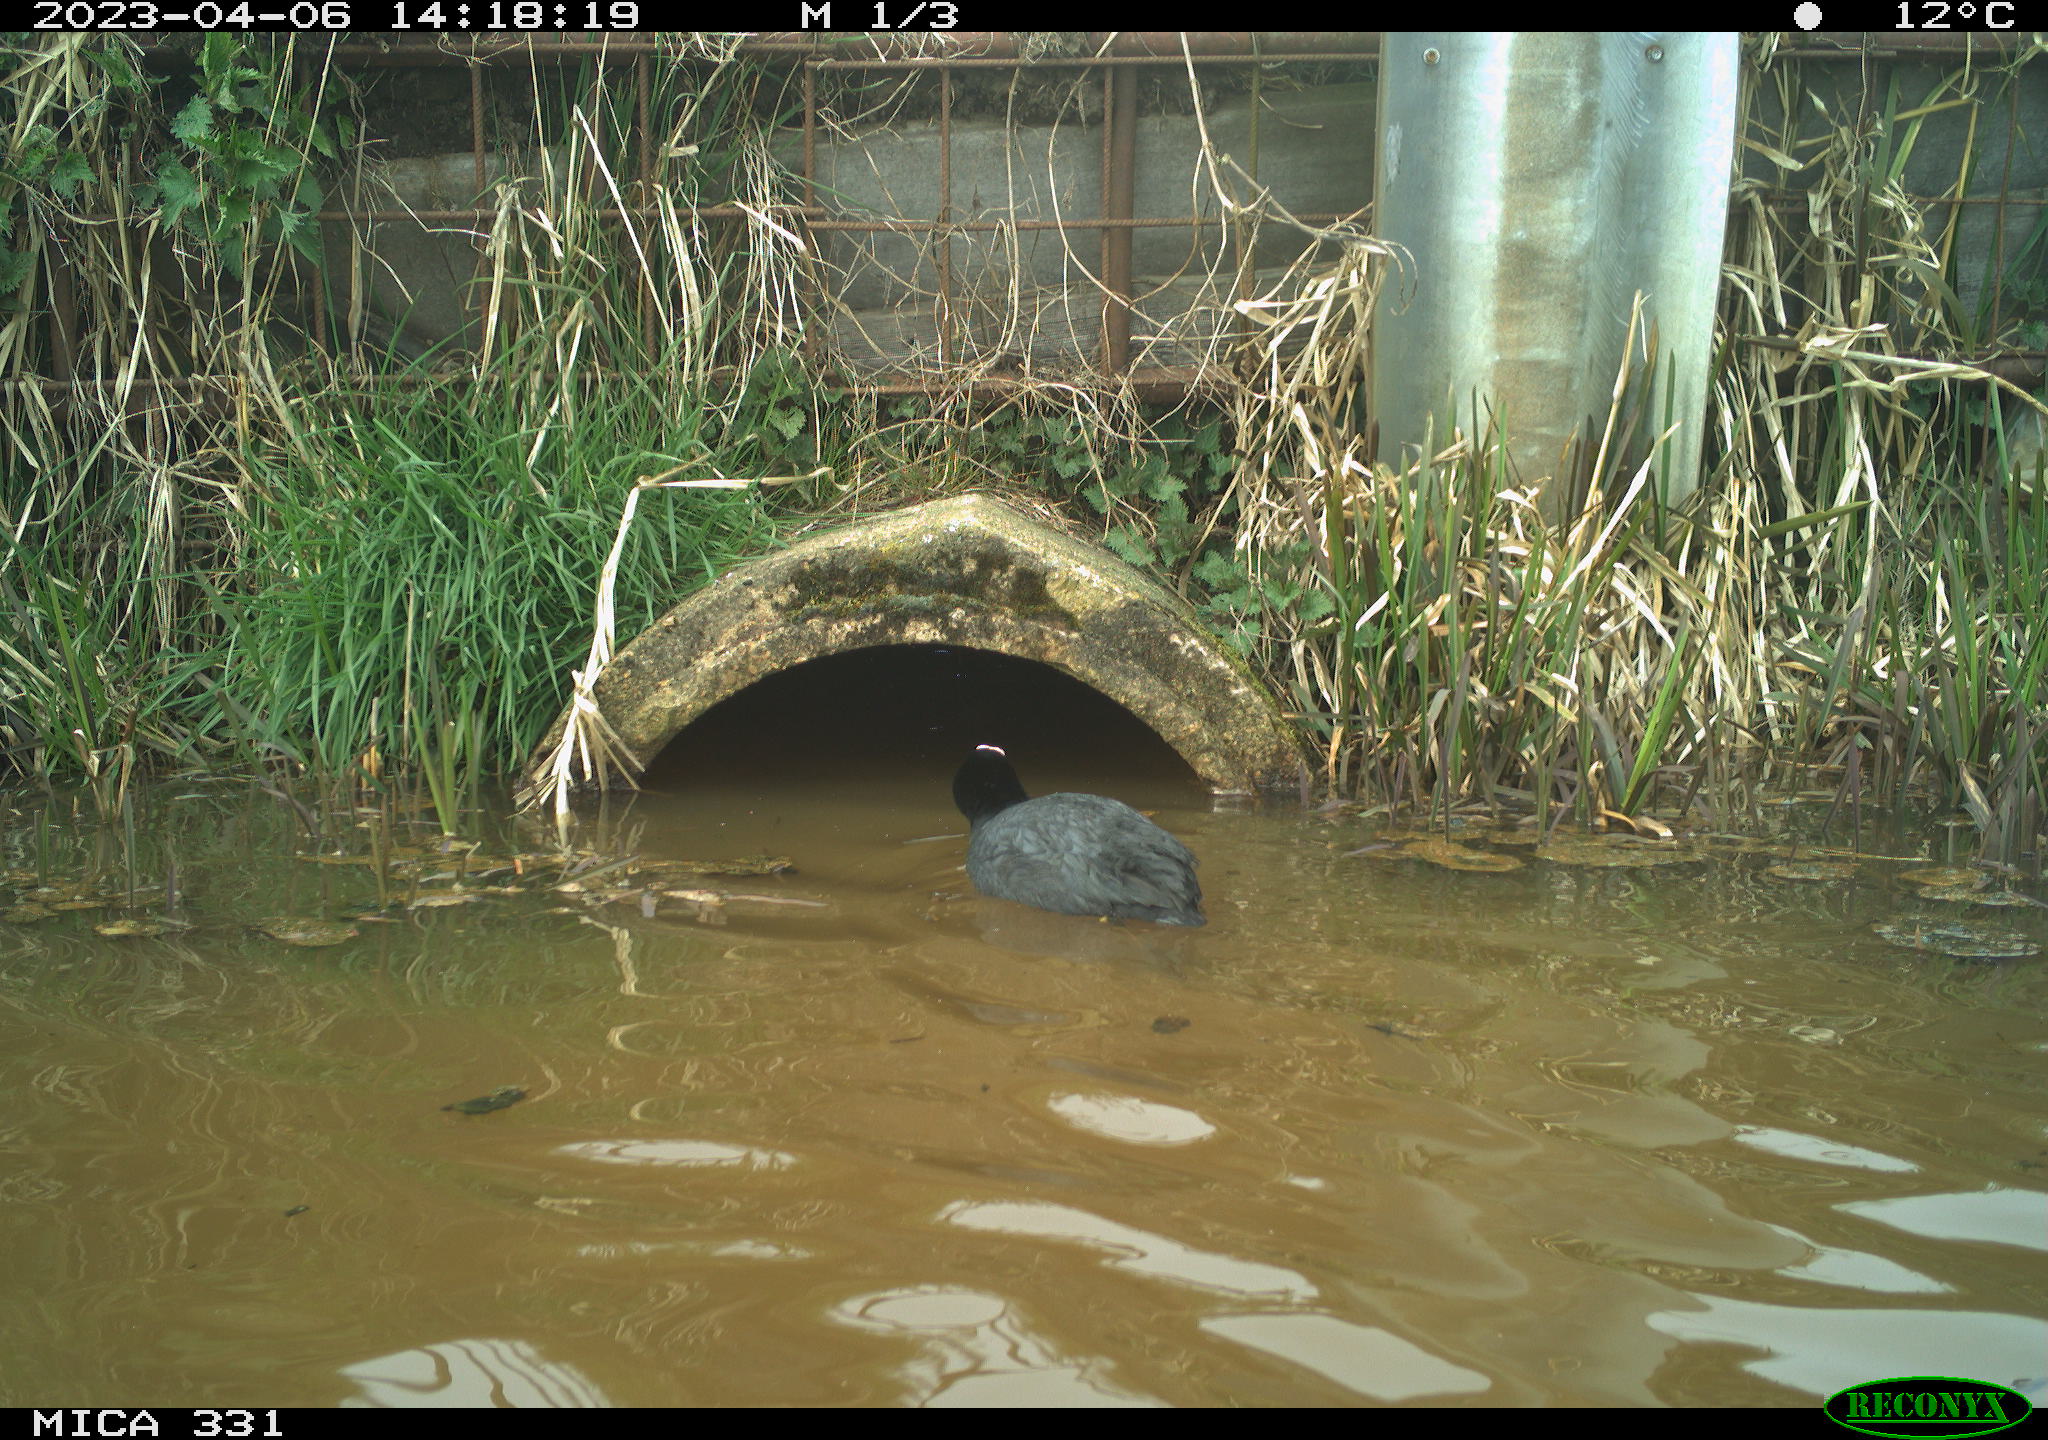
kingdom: Animalia
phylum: Chordata
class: Aves
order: Gruiformes
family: Rallidae
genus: Fulica
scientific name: Fulica atra
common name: Eurasian coot
